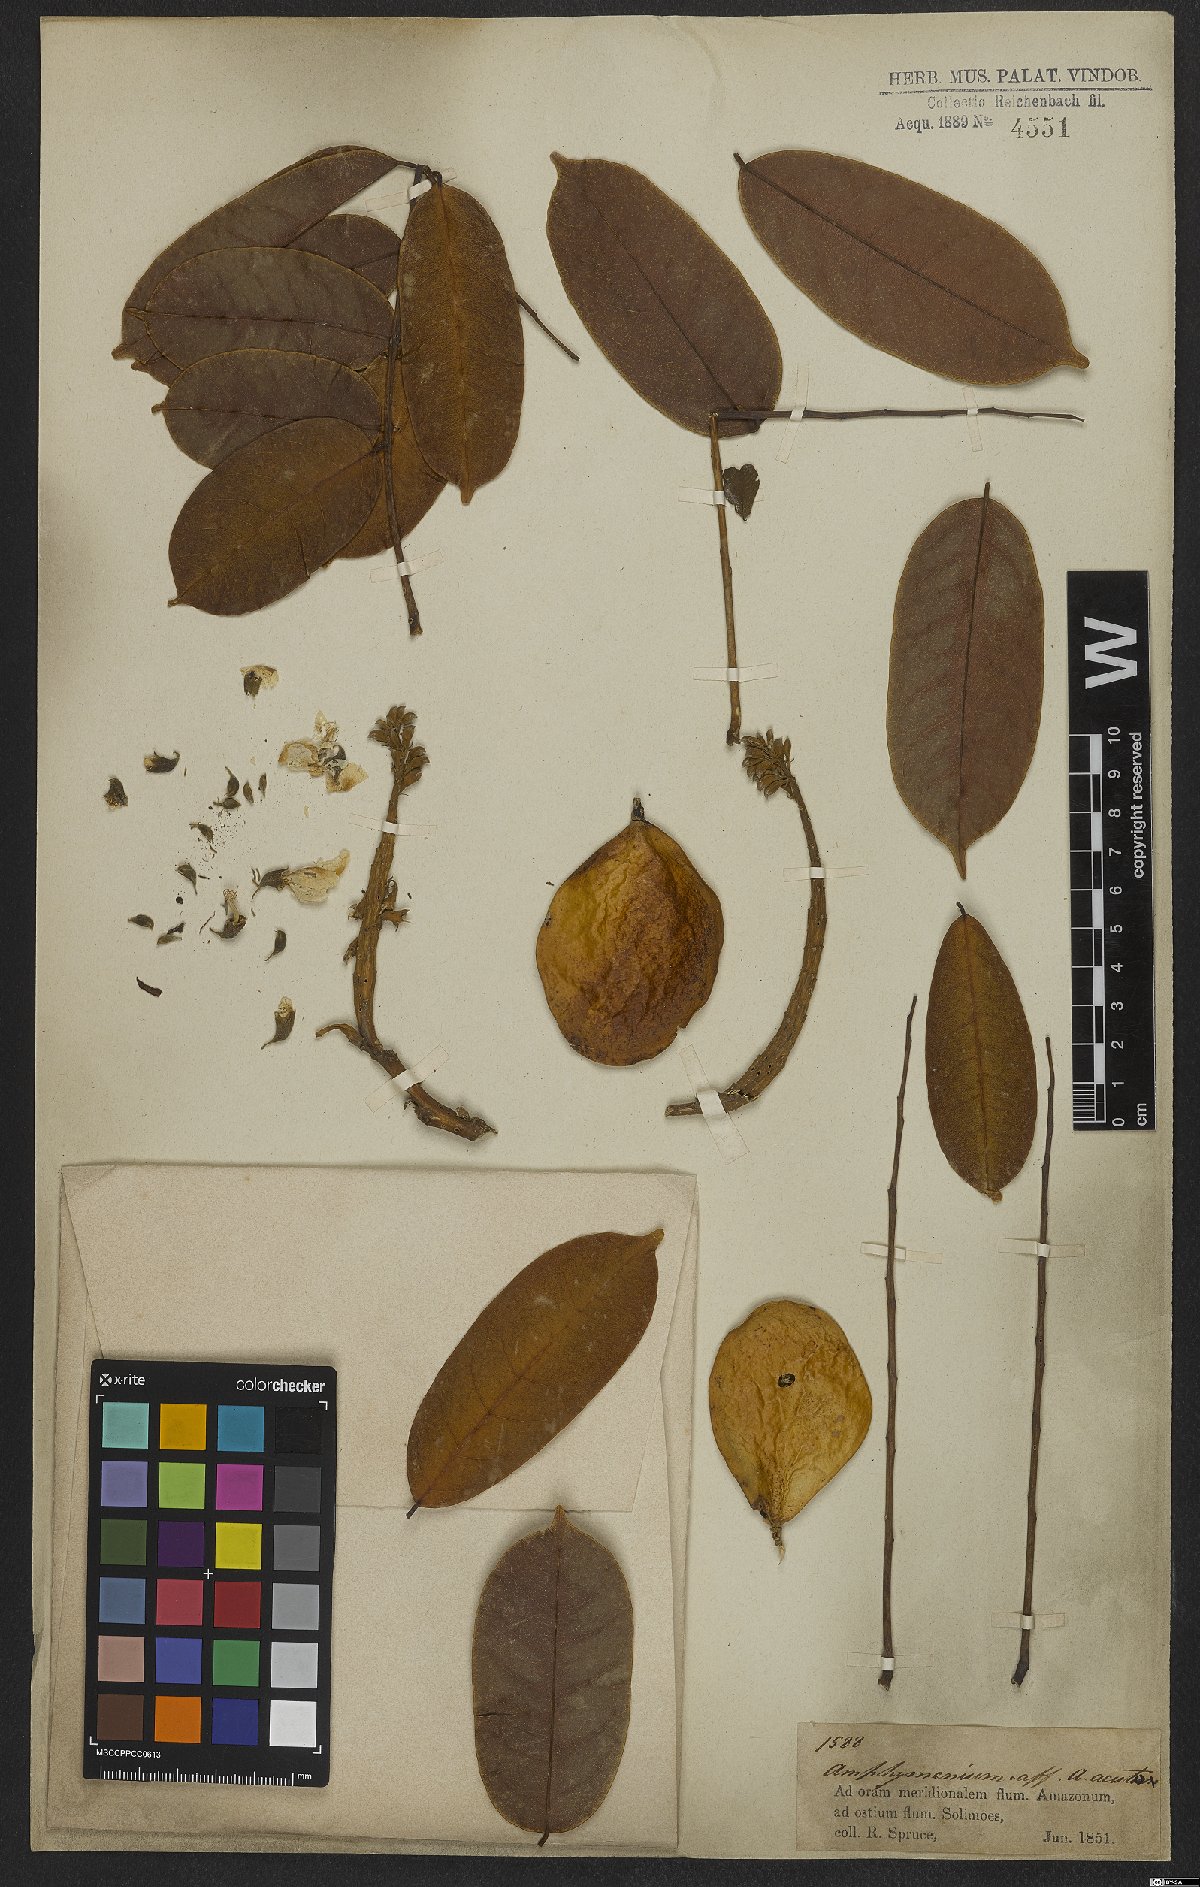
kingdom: Plantae
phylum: Tracheophyta
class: Magnoliopsida
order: Fabales
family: Fabaceae
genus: Pterocarpus
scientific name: Pterocarpus
